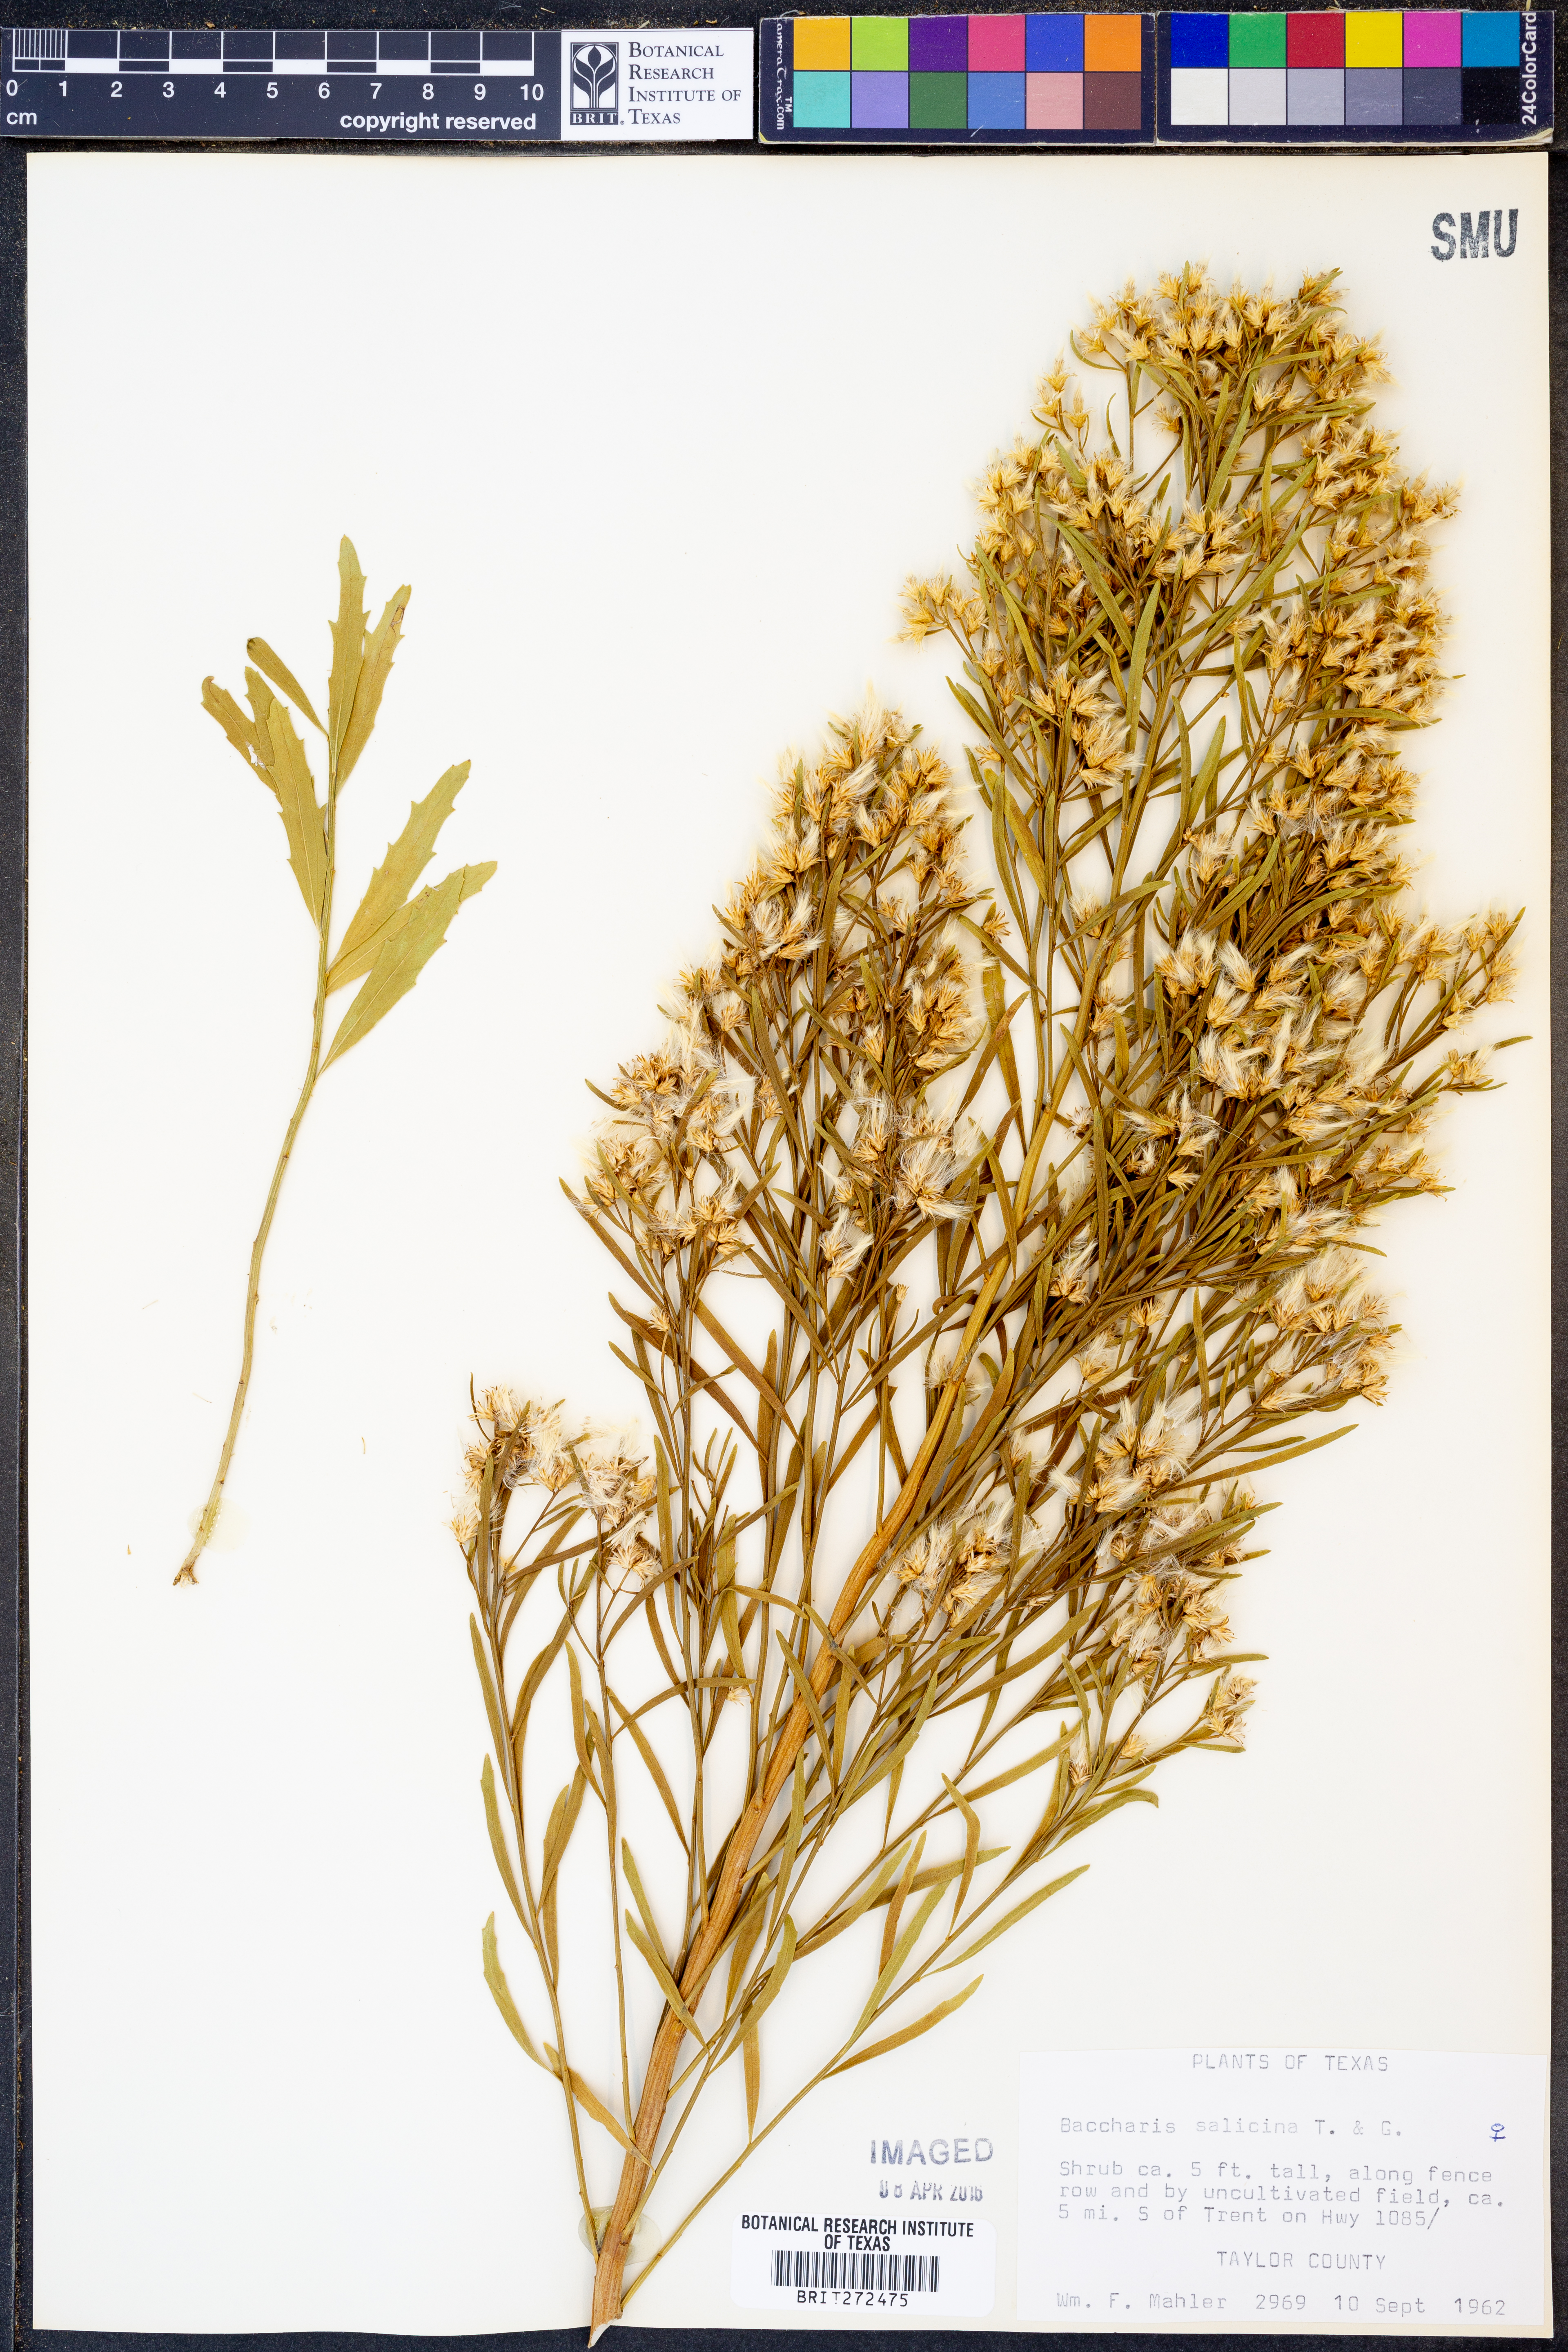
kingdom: Plantae
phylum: Tracheophyta
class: Magnoliopsida
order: Asterales
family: Asteraceae
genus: Baccharis
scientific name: Baccharis salicina
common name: Willow baccharis
